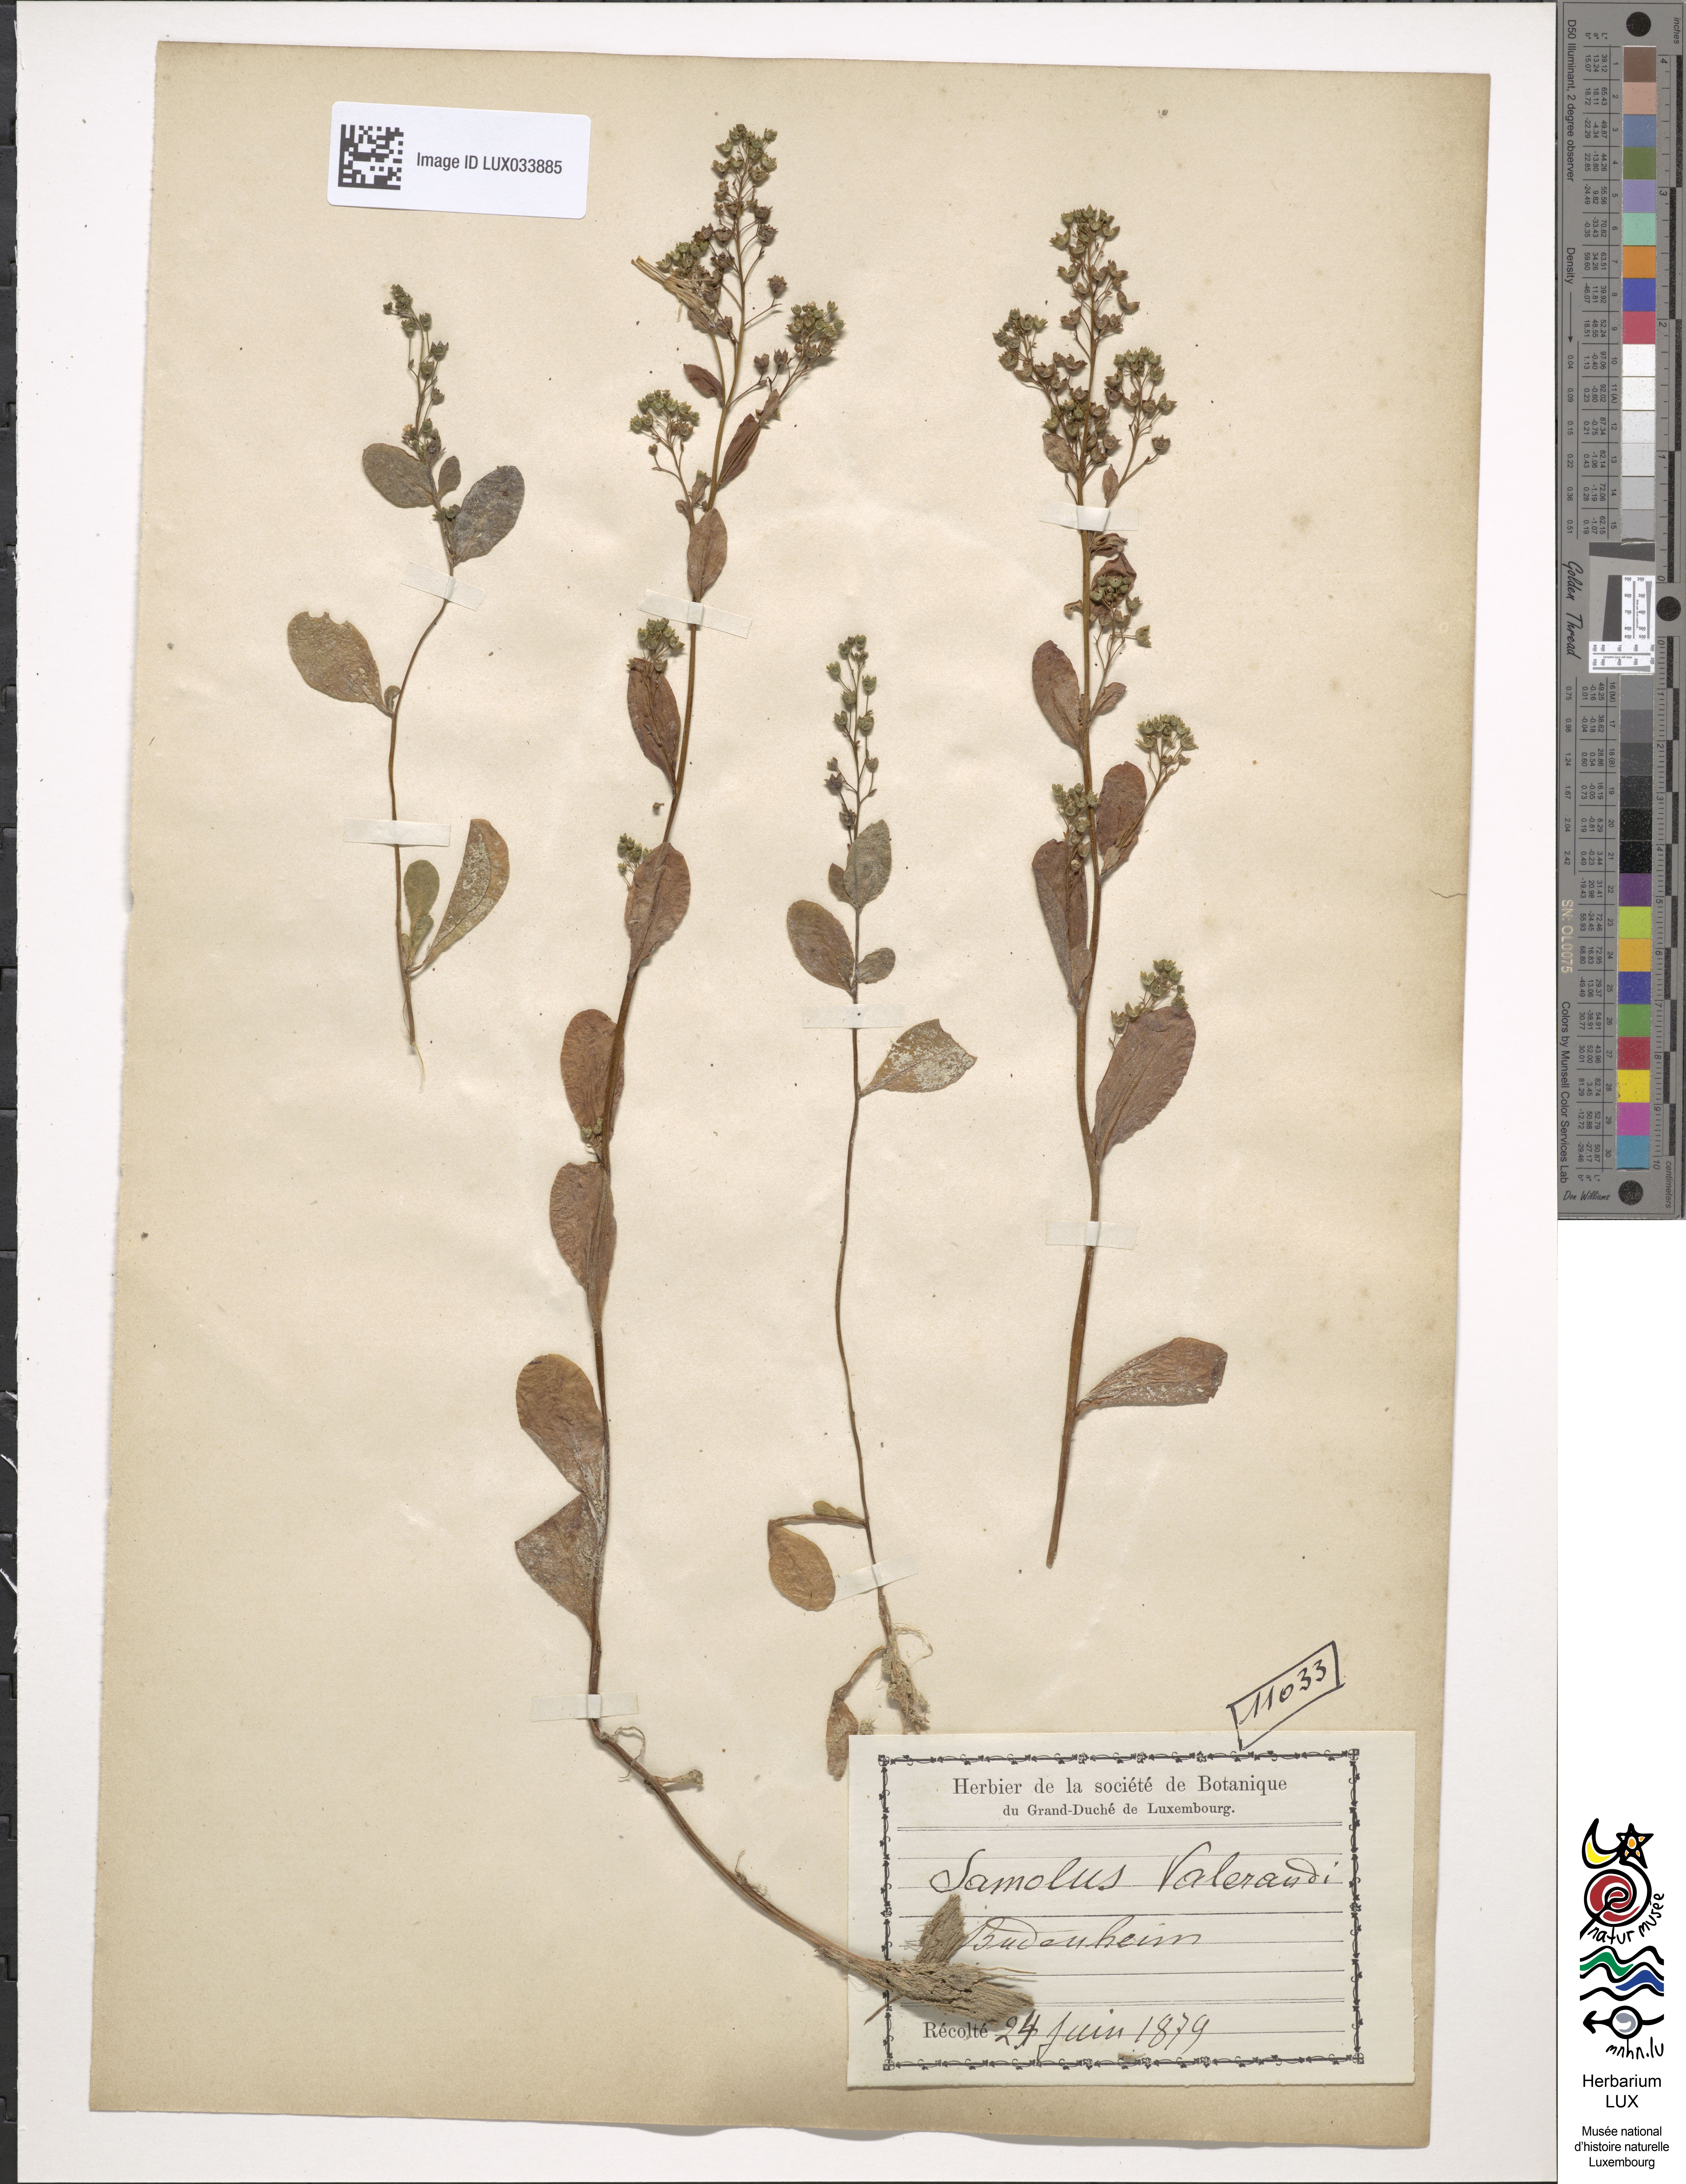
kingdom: Plantae
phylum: Tracheophyta
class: Magnoliopsida
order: Ericales
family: Primulaceae
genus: Samolus
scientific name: Samolus valerandi
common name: Brookweed
